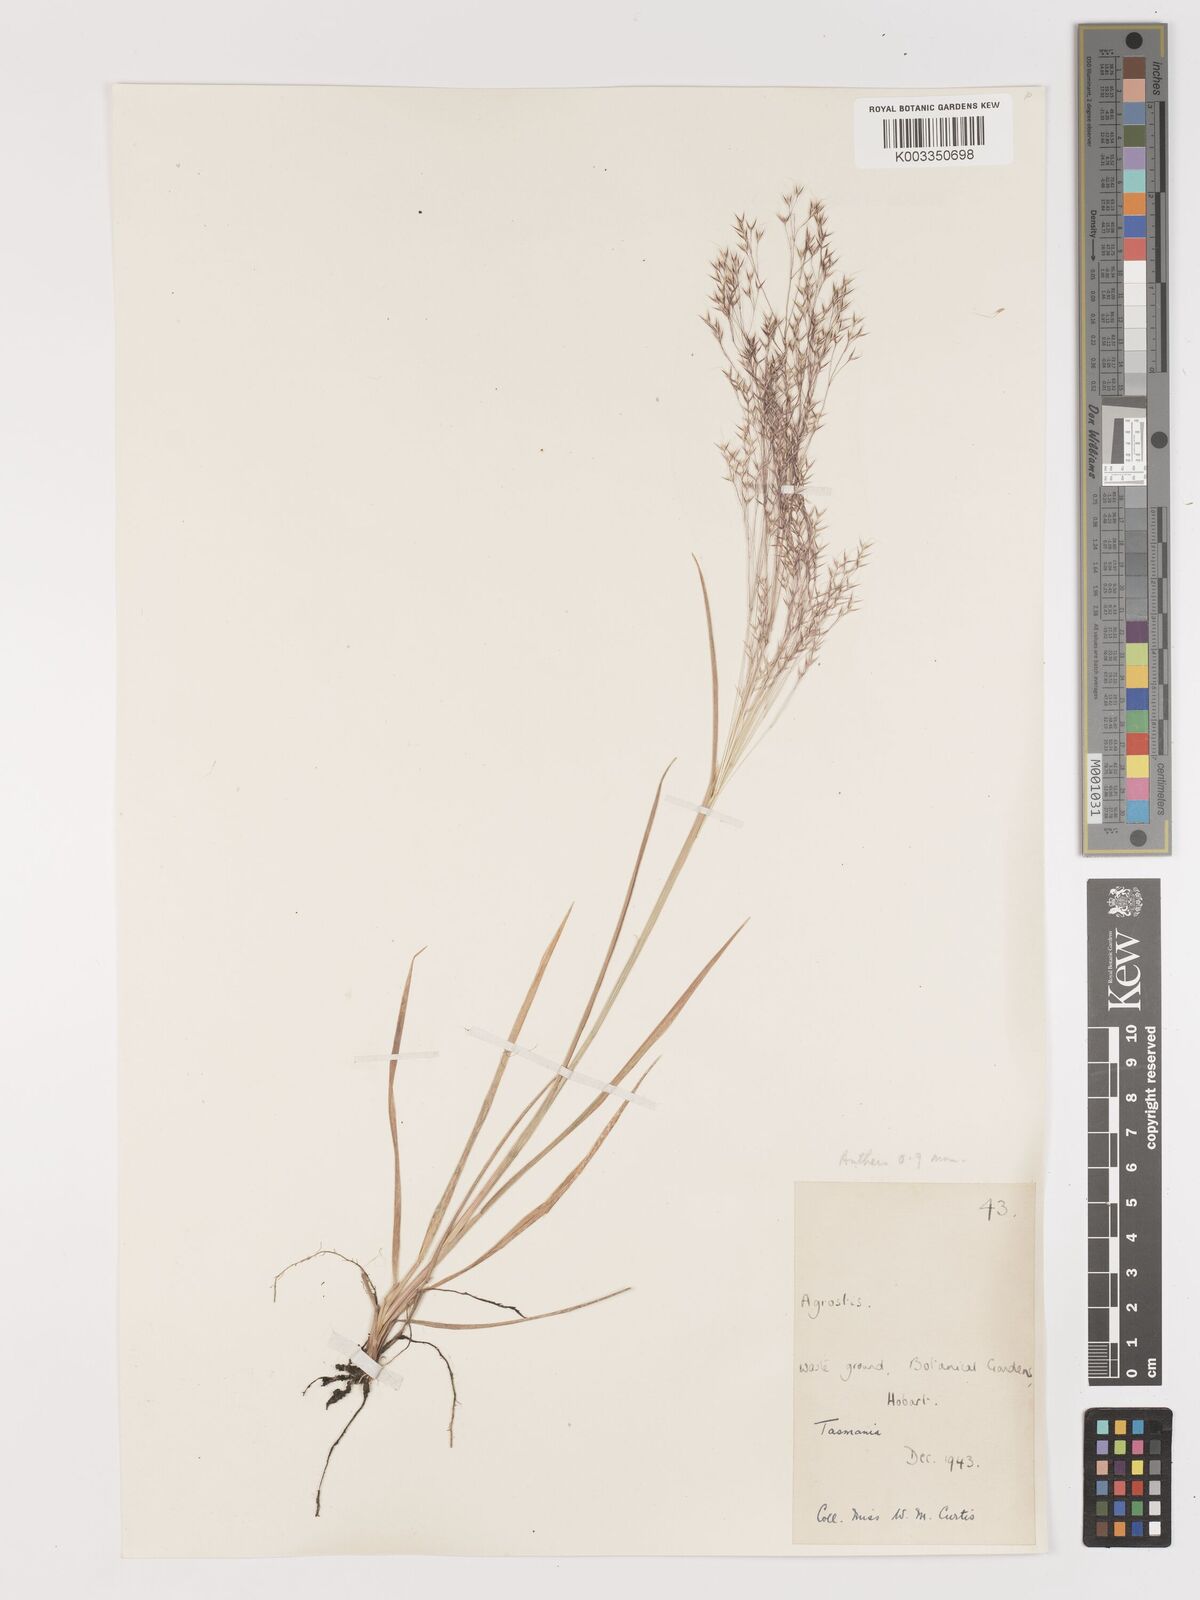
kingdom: Plantae
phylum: Tracheophyta
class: Liliopsida
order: Poales
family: Poaceae
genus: Lachnagrostis
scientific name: Lachnagrostis aemula
